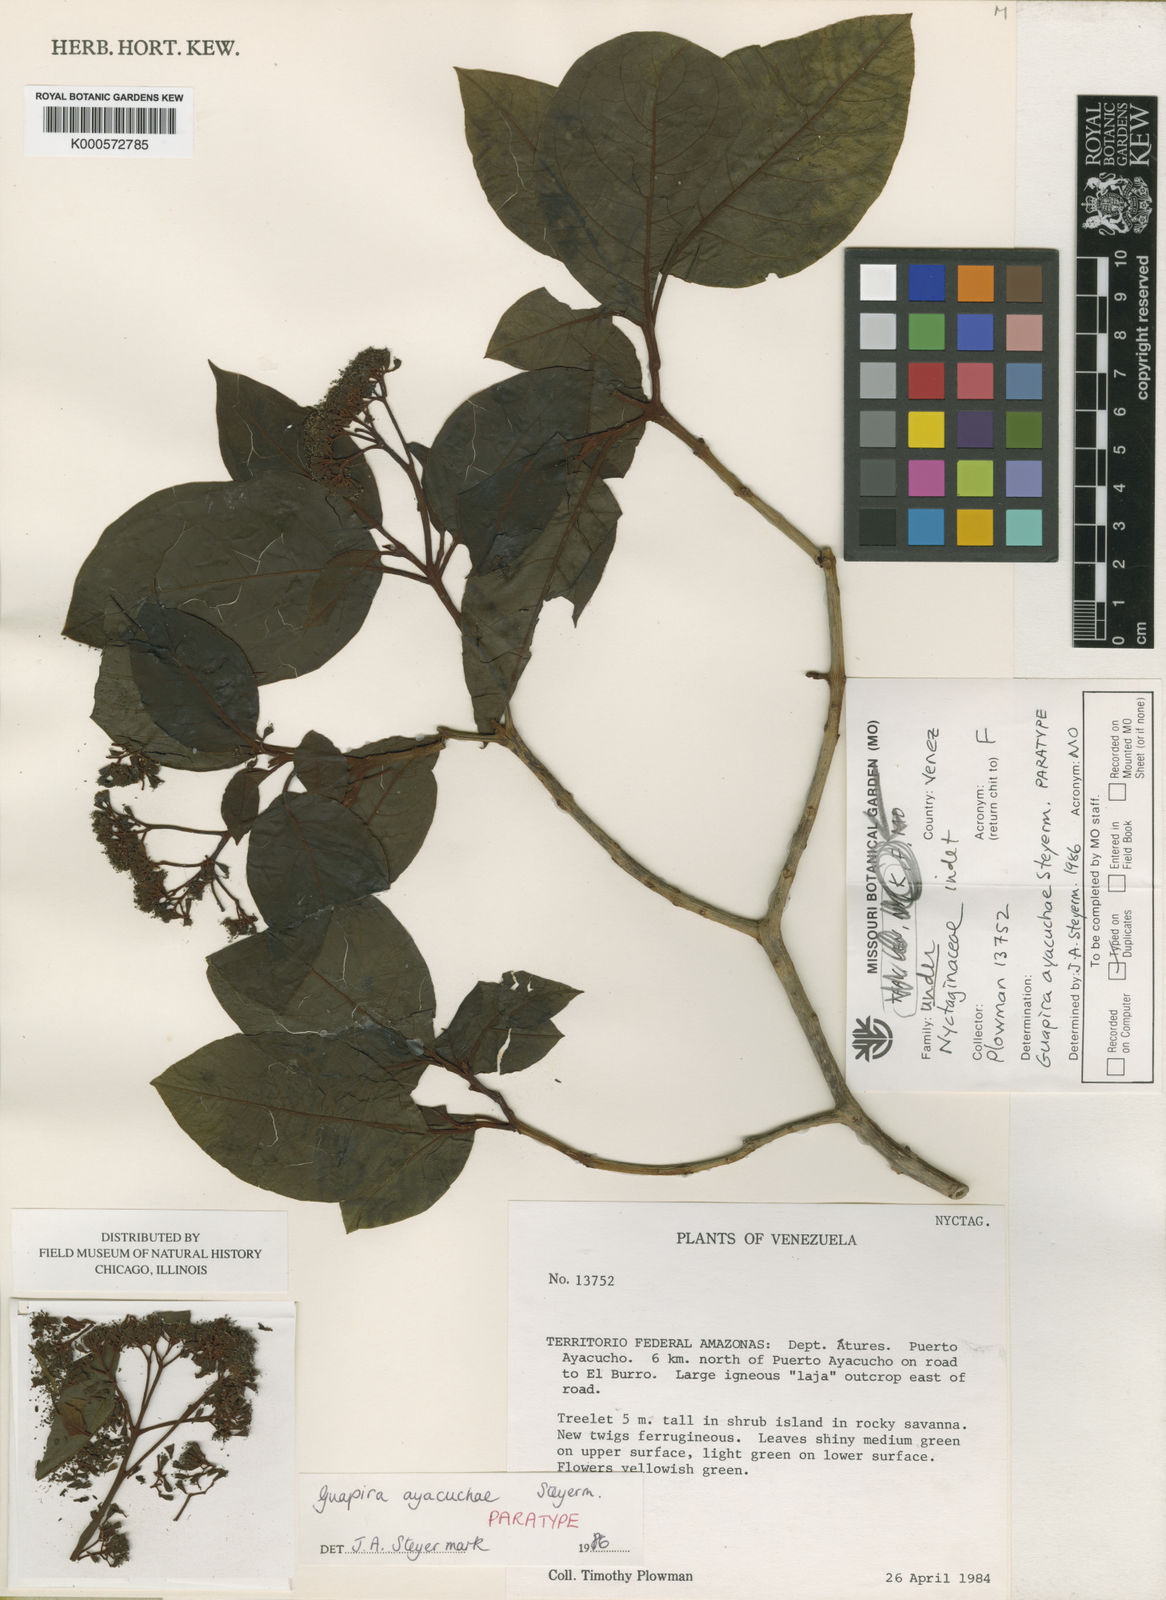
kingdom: Plantae
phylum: Tracheophyta
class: Magnoliopsida
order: Caryophyllales
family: Nyctaginaceae
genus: Guapira
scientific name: Guapira cuspidata
